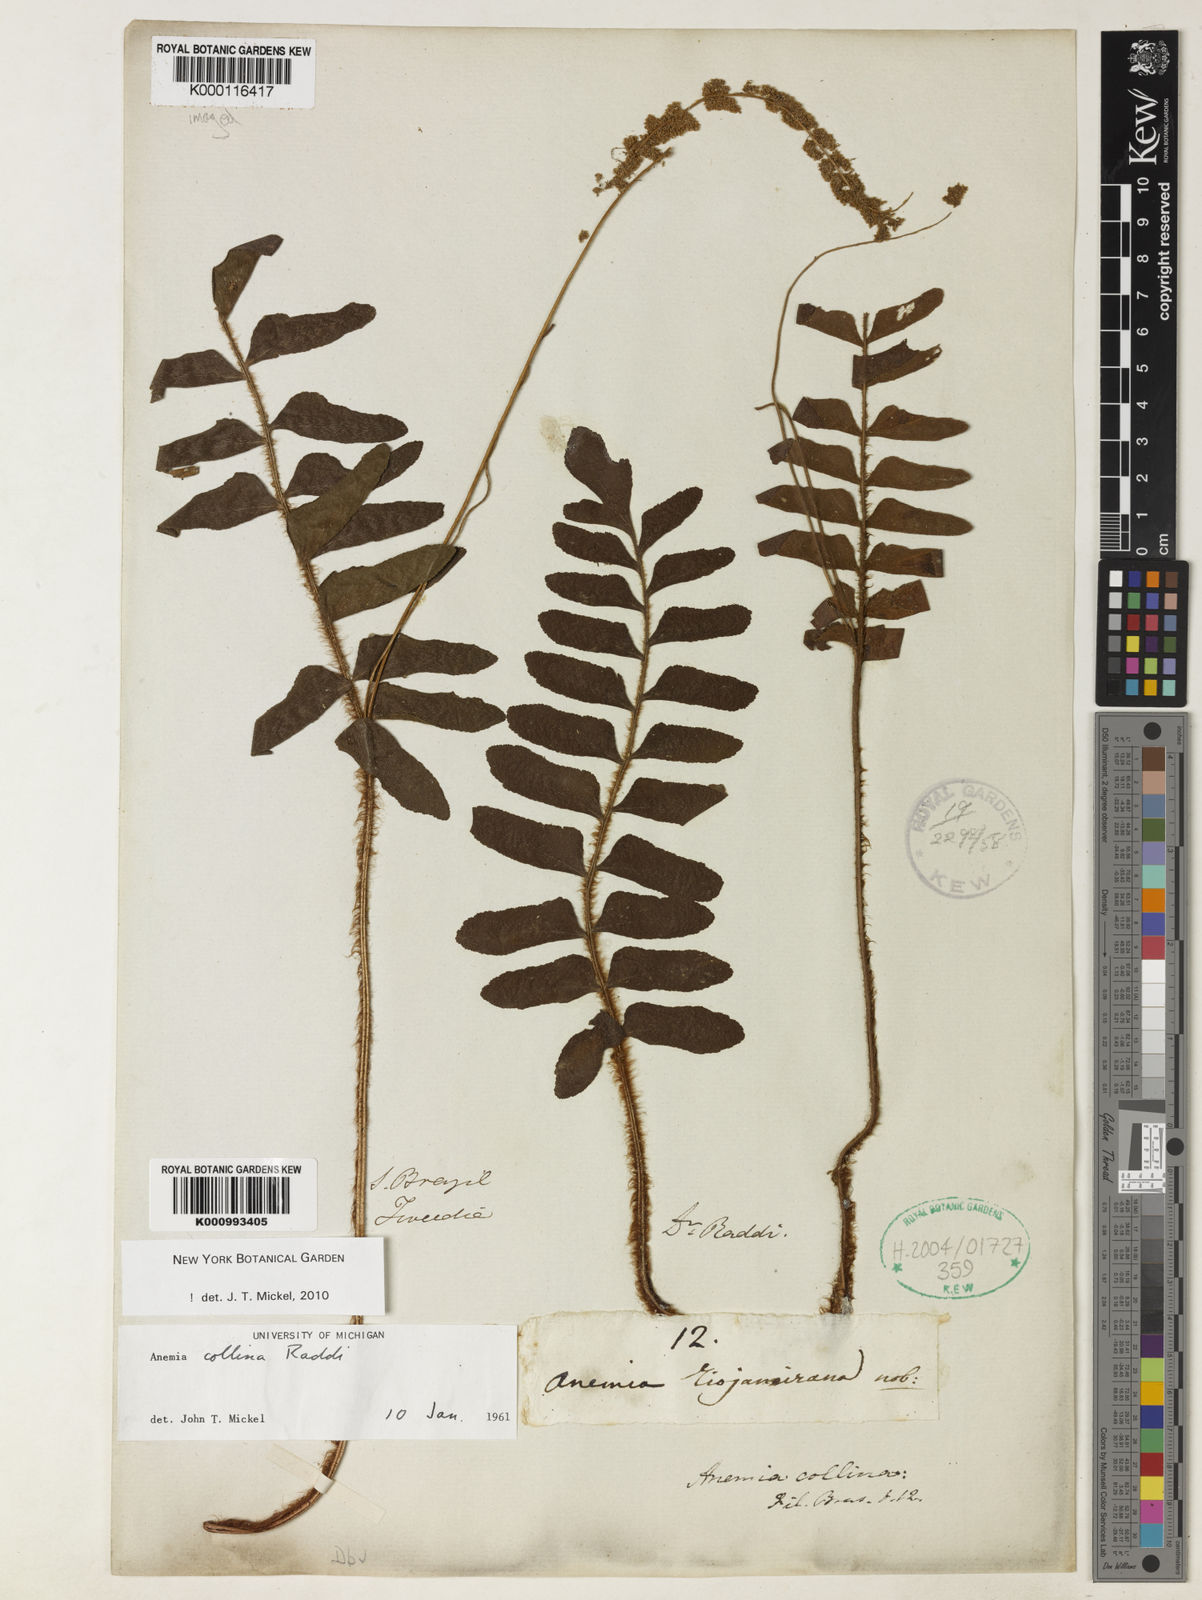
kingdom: Plantae
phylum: Tracheophyta
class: Polypodiopsida
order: Schizaeales
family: Anemiaceae
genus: Anemia
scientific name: Anemia collina
